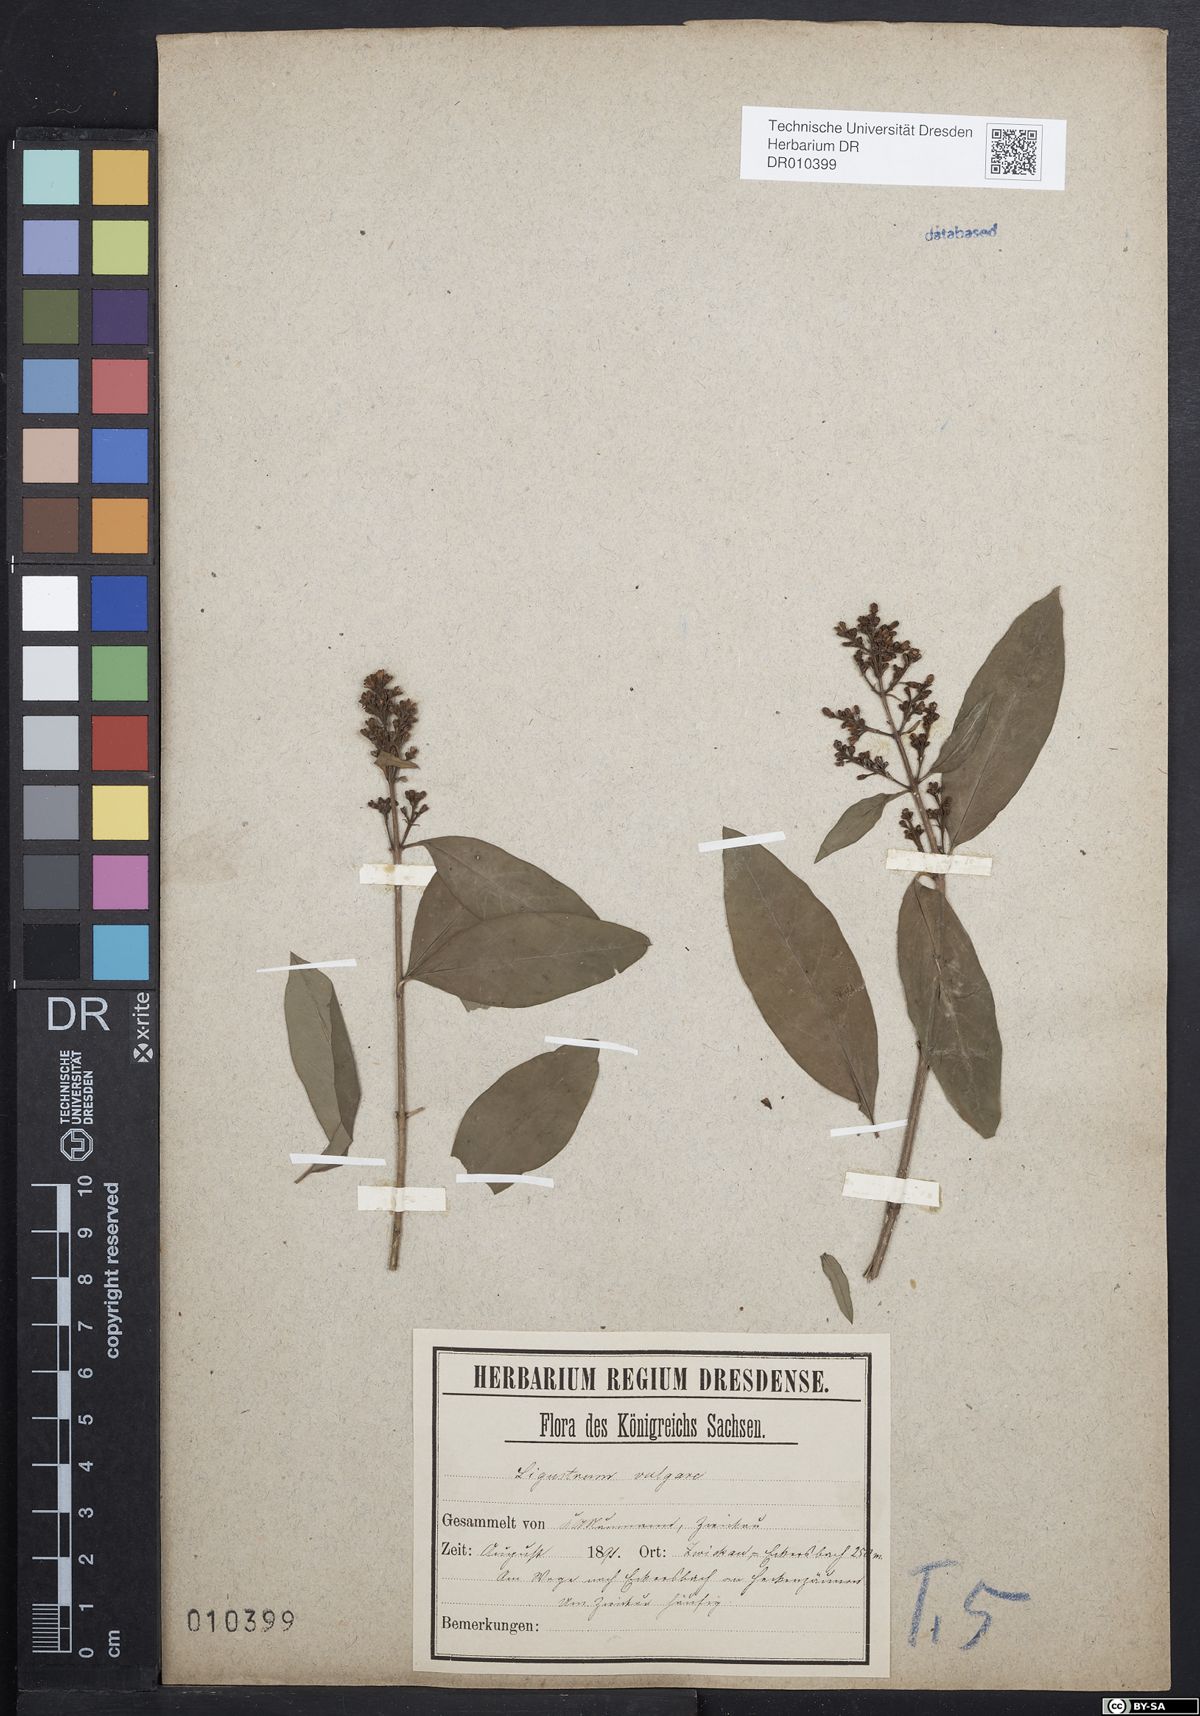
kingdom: Plantae
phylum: Tracheophyta
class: Magnoliopsida
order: Lamiales
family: Oleaceae
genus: Ligustrum
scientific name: Ligustrum vulgare
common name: Wild privet
